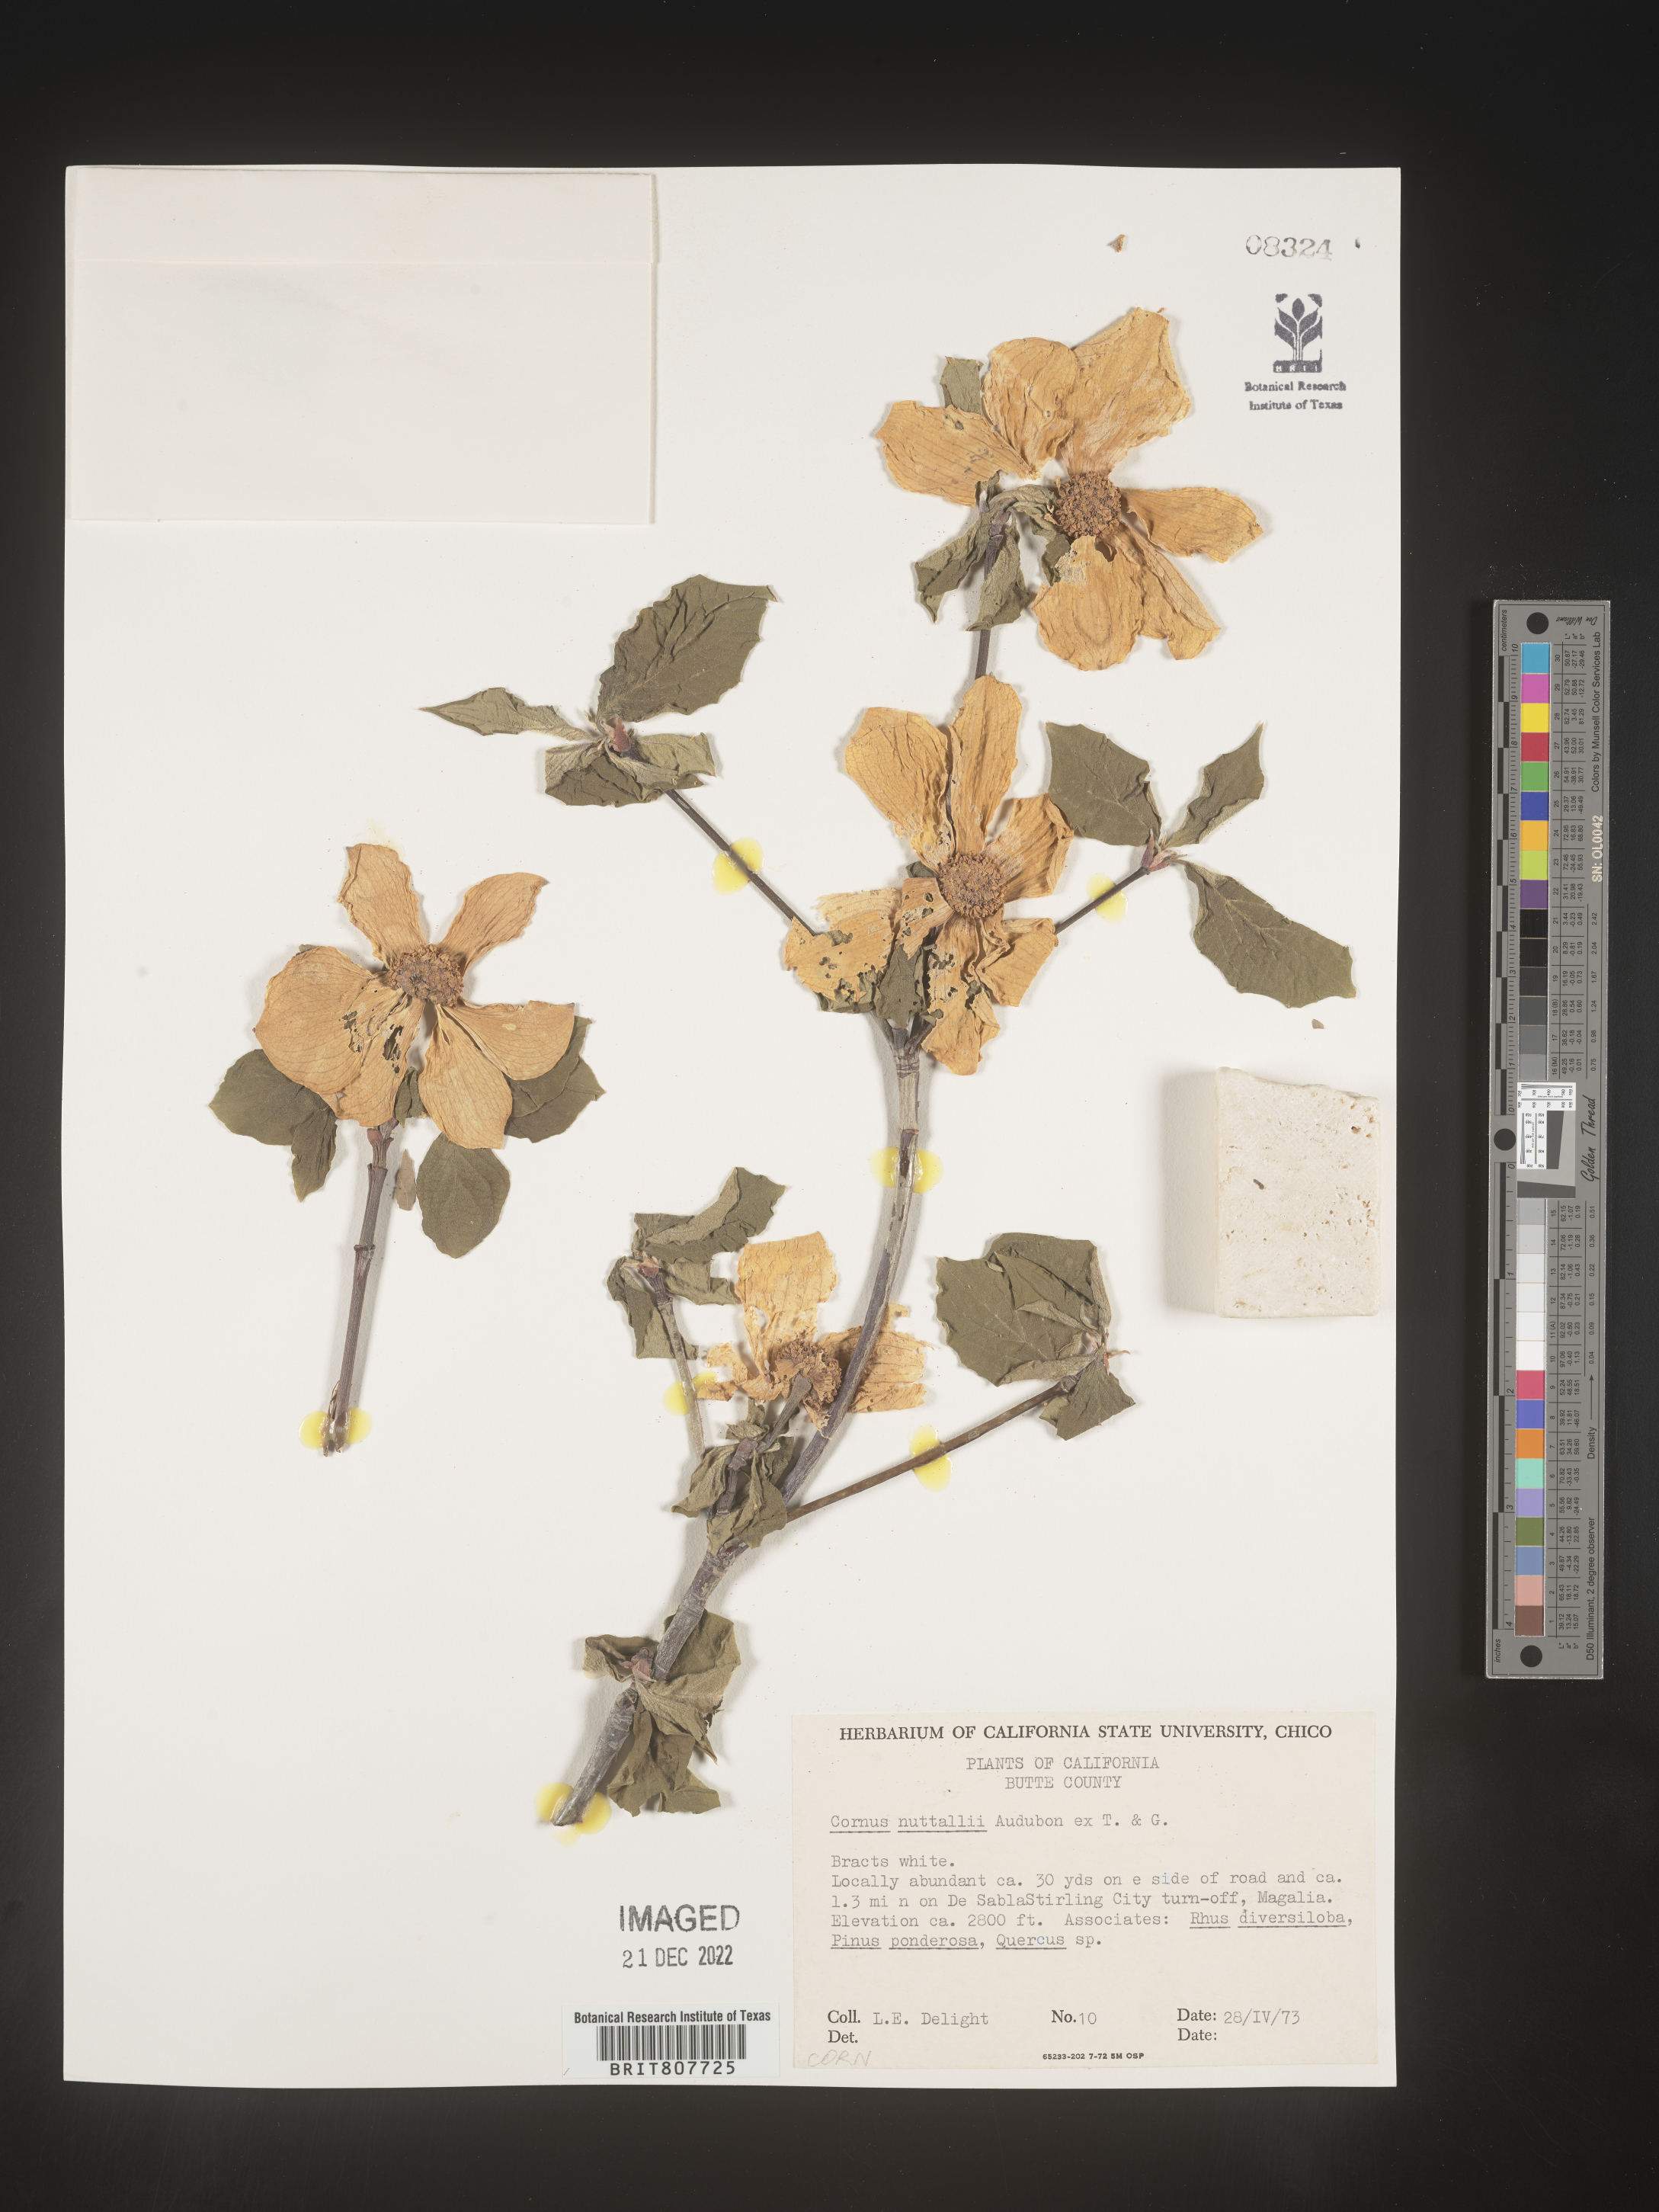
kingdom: Plantae
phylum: Tracheophyta
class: Magnoliopsida
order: Cornales
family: Cornaceae
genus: Cornus
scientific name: Cornus nuttallii
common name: Pacific dogwood
